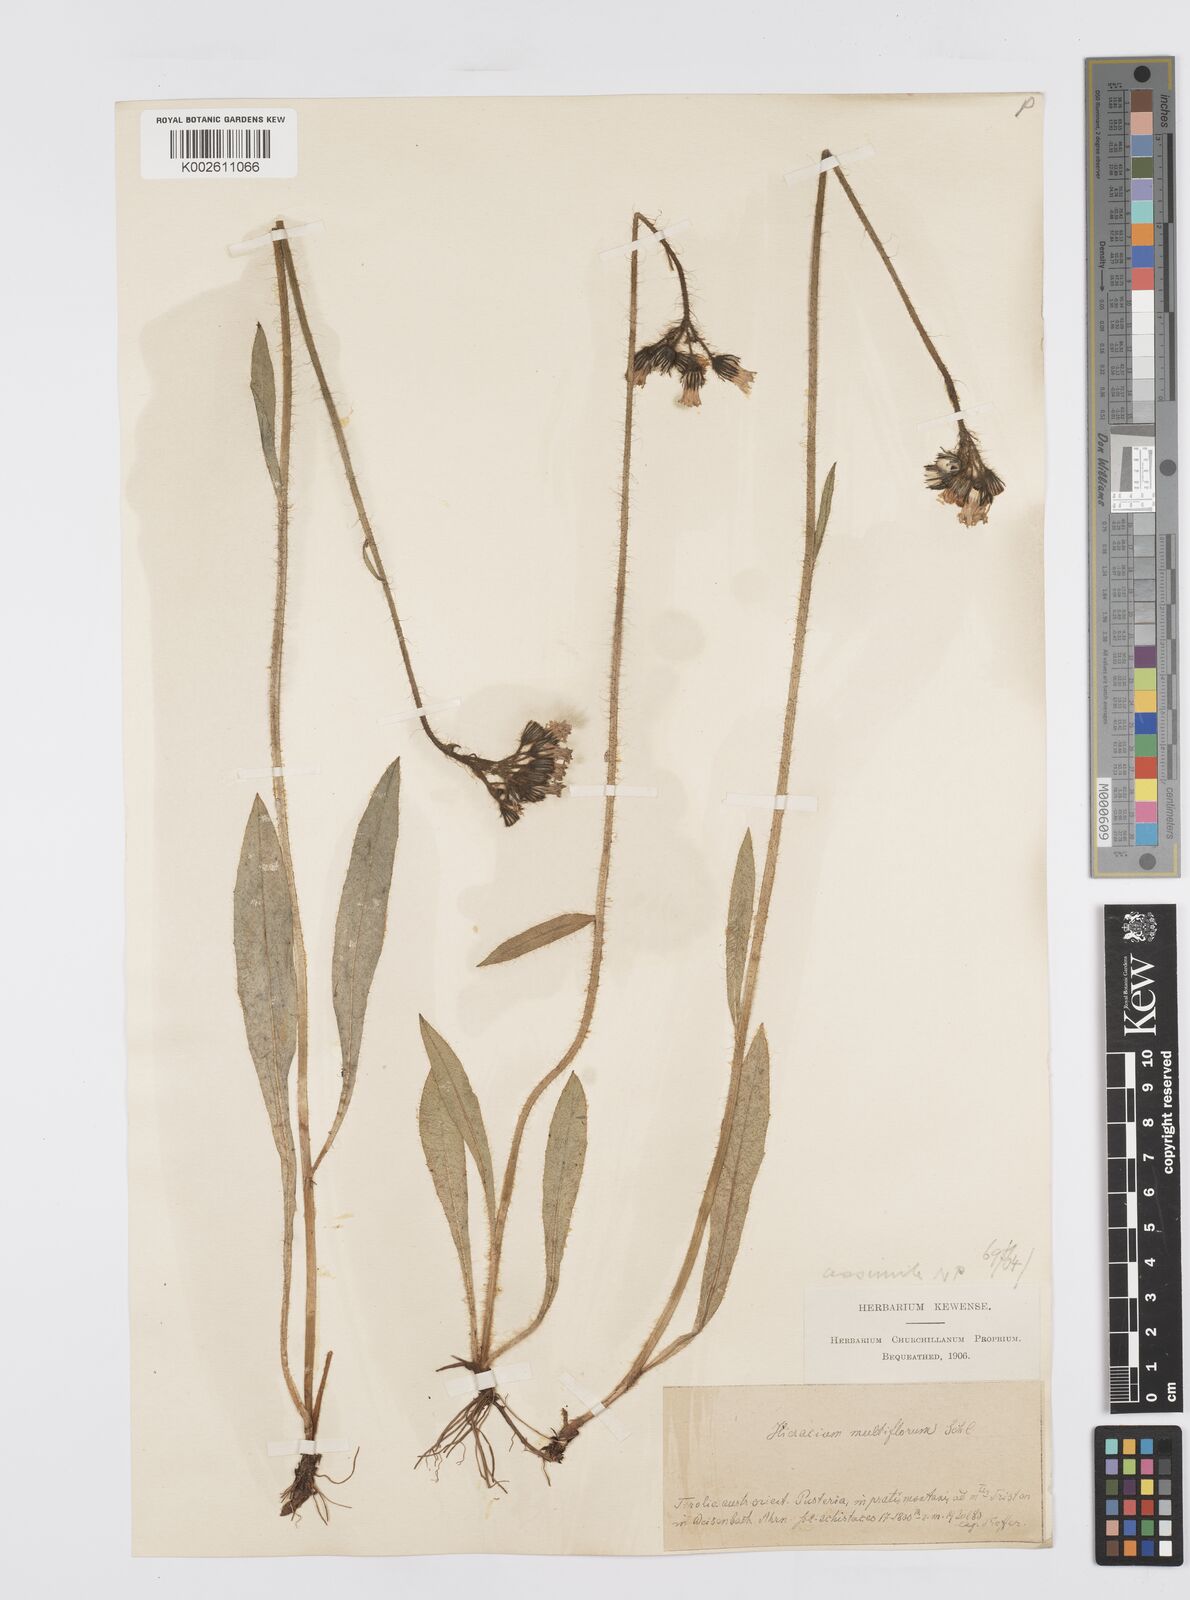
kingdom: Plantae
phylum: Tracheophyta
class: Magnoliopsida
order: Asterales
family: Asteraceae
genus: Pilosella
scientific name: Pilosella piloselloides
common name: Glaucous king-devil
